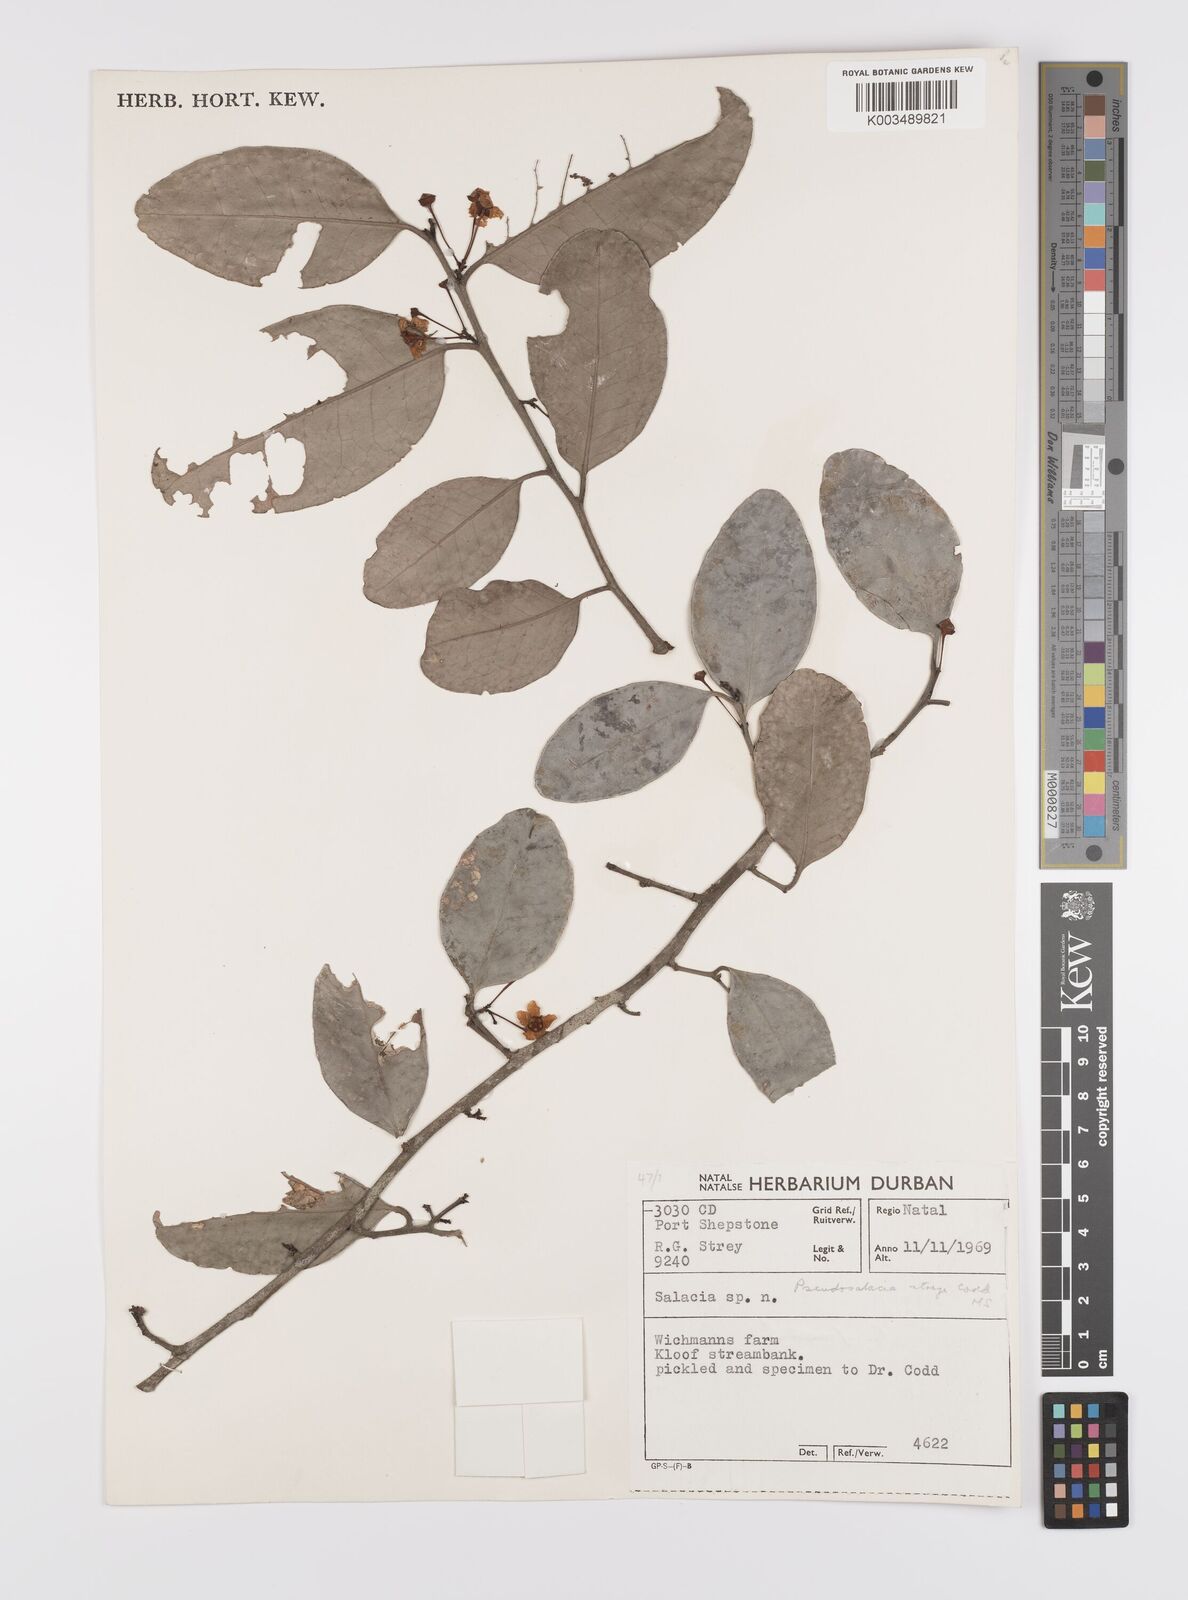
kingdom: Plantae
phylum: Tracheophyta
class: Magnoliopsida
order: Celastrales
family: Celastraceae
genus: Pseudosalacia
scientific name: Pseudosalacia streyi
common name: Bastard lemon
